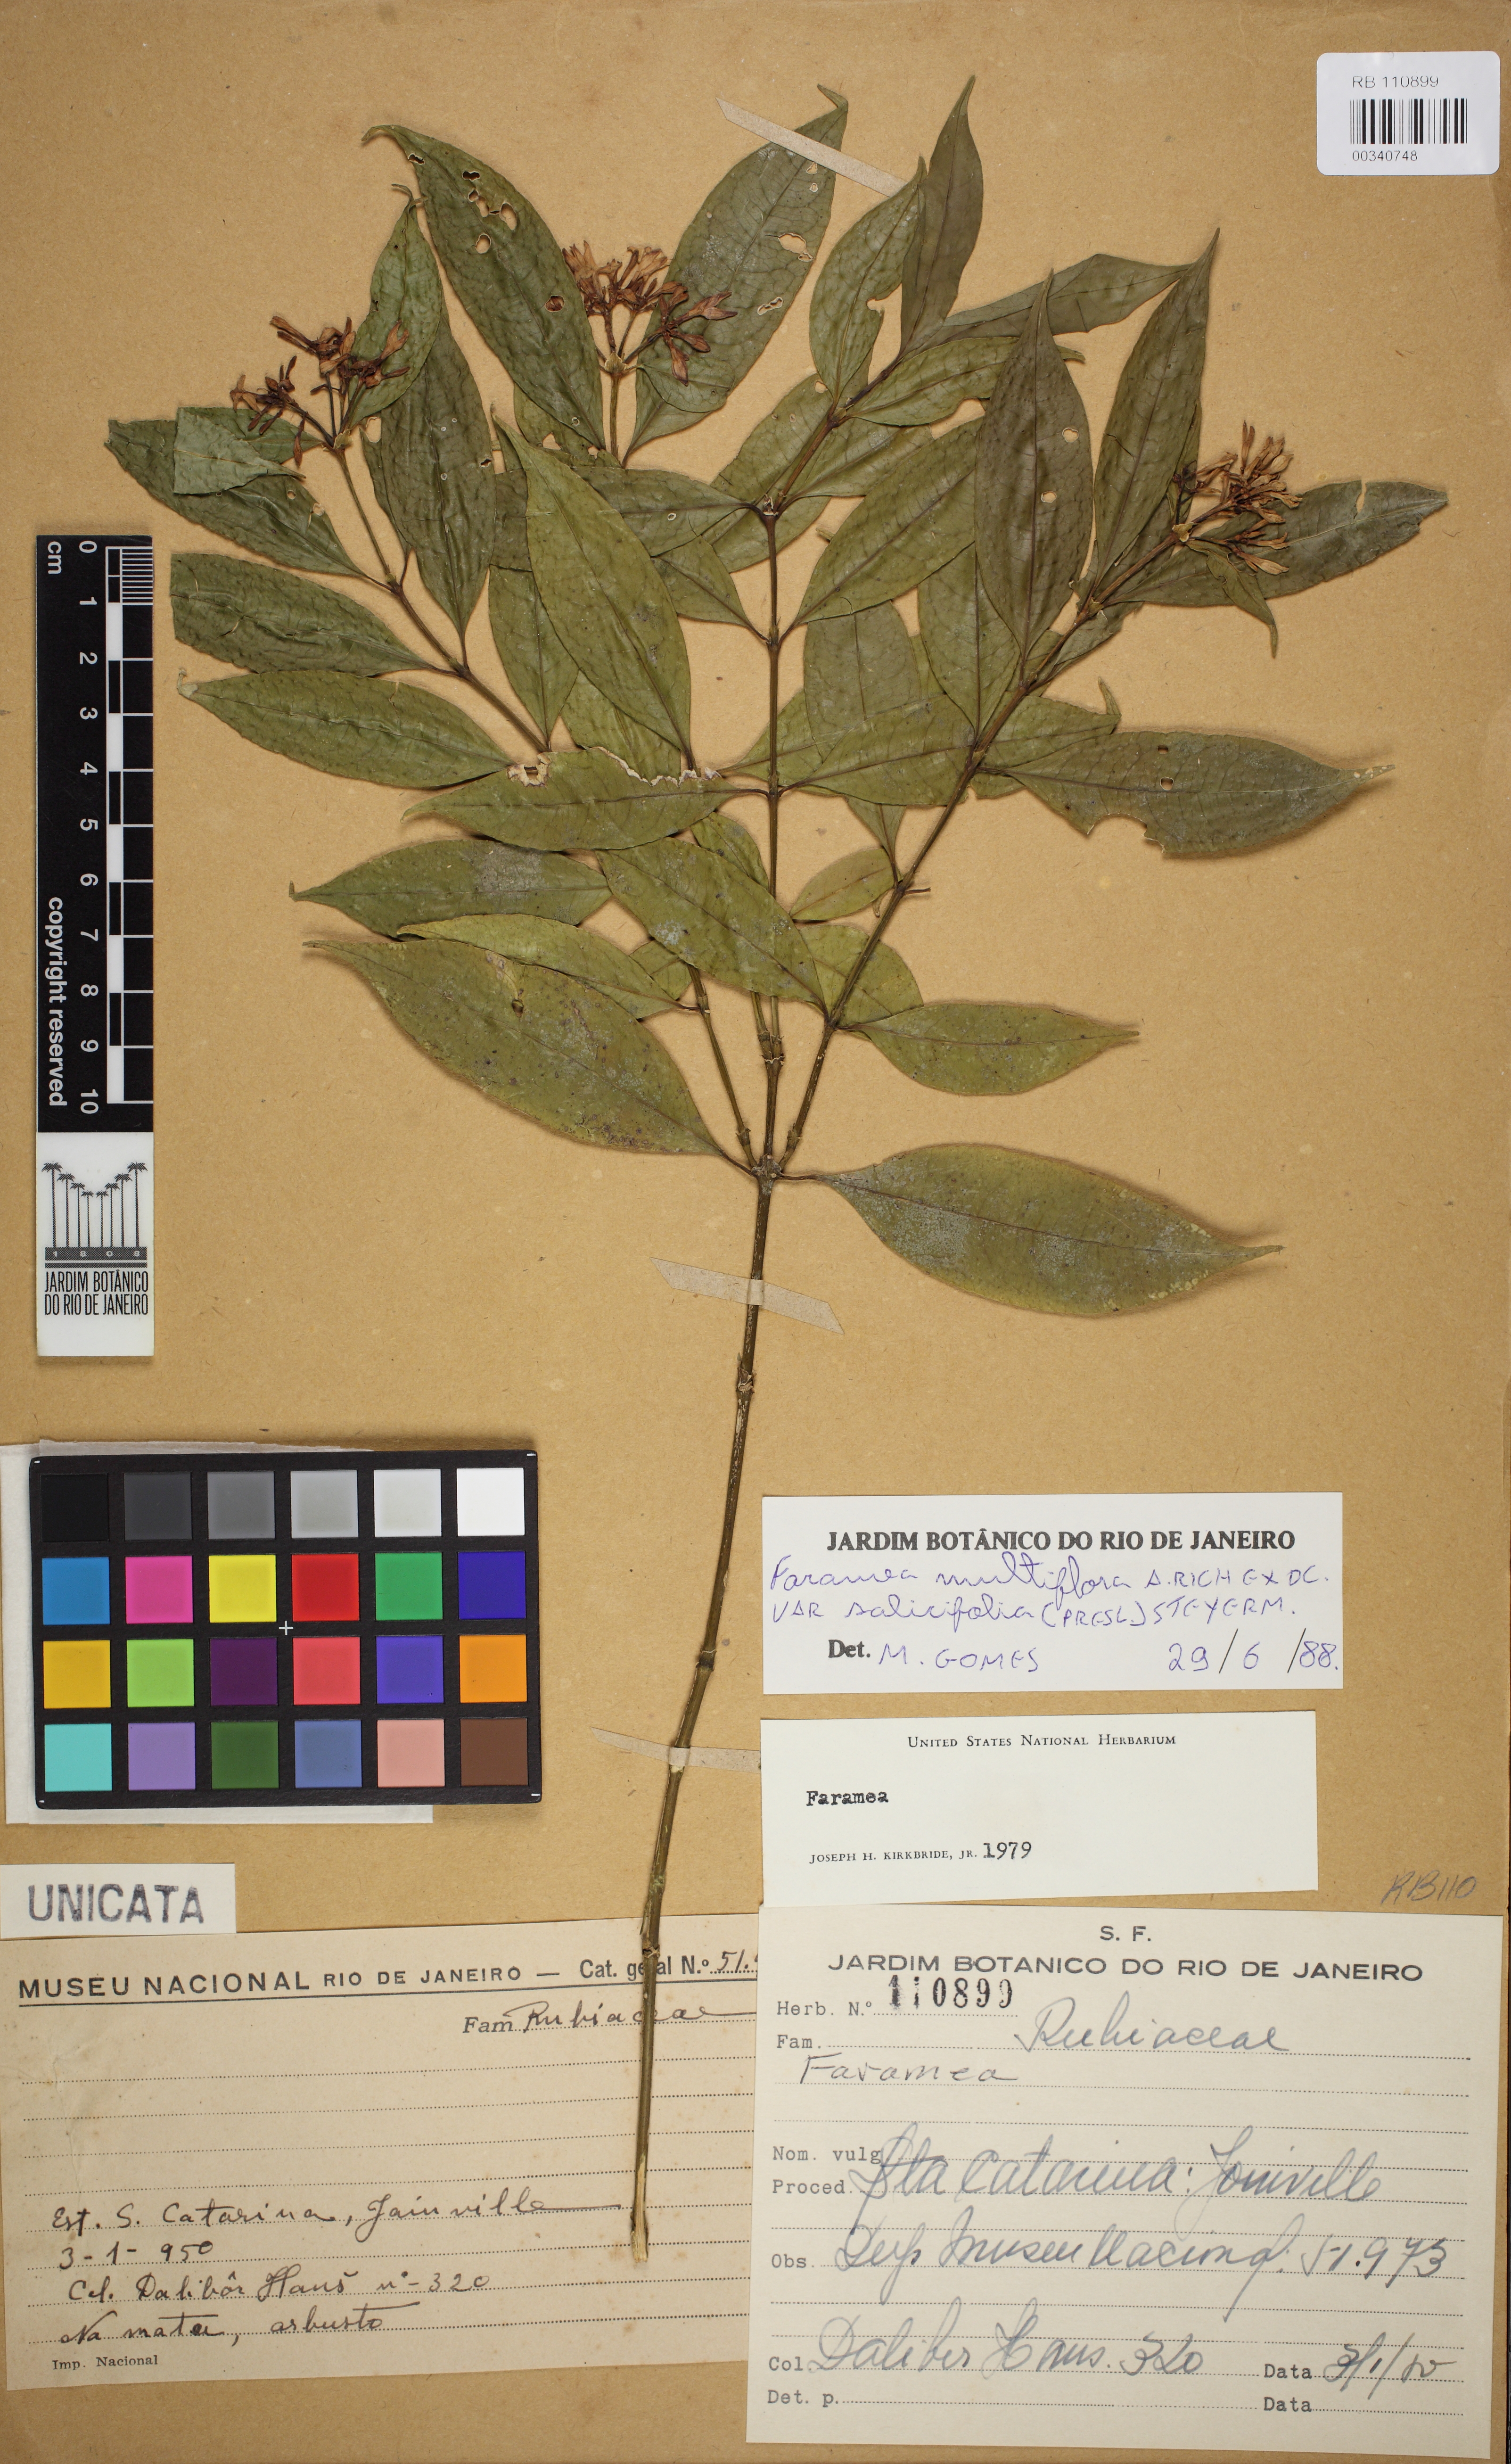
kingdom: Plantae
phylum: Tracheophyta
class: Magnoliopsida
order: Gentianales
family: Rubiaceae
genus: Faramea
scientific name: Faramea multiflora
